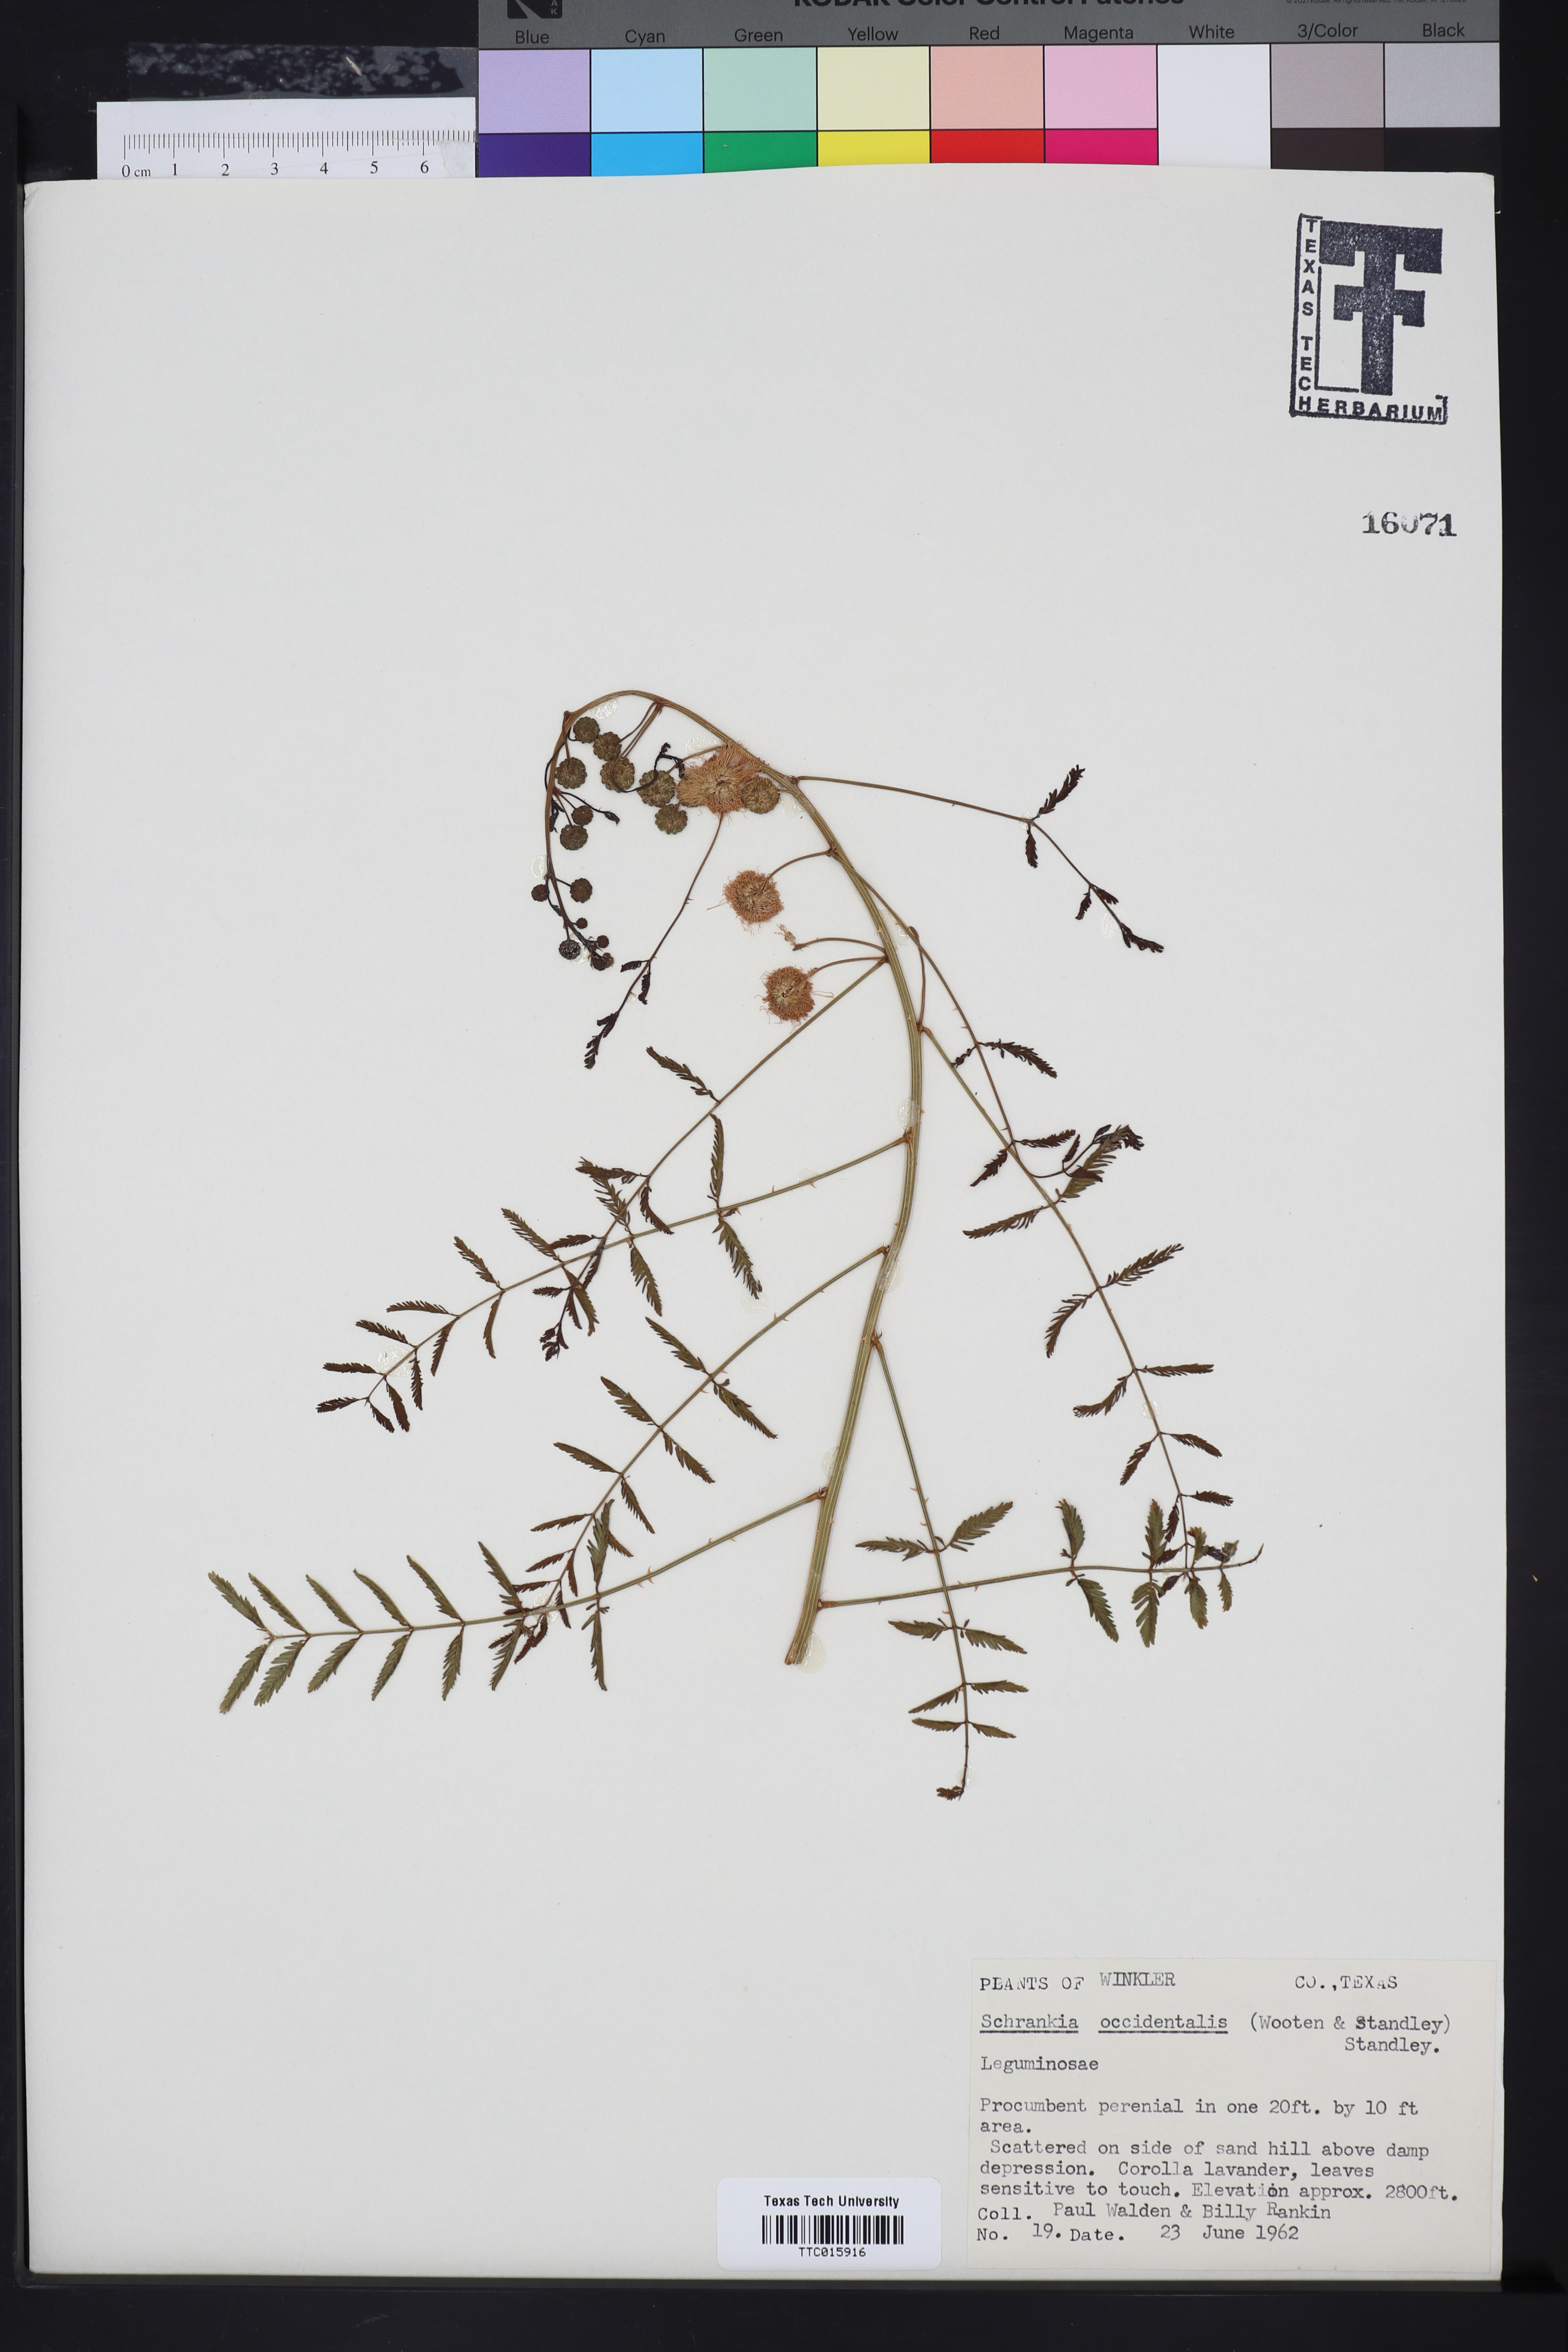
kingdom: Plantae
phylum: Tracheophyta
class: Magnoliopsida
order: Fabales
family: Fabaceae
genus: Mimosa
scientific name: Mimosa quadrivalvis
